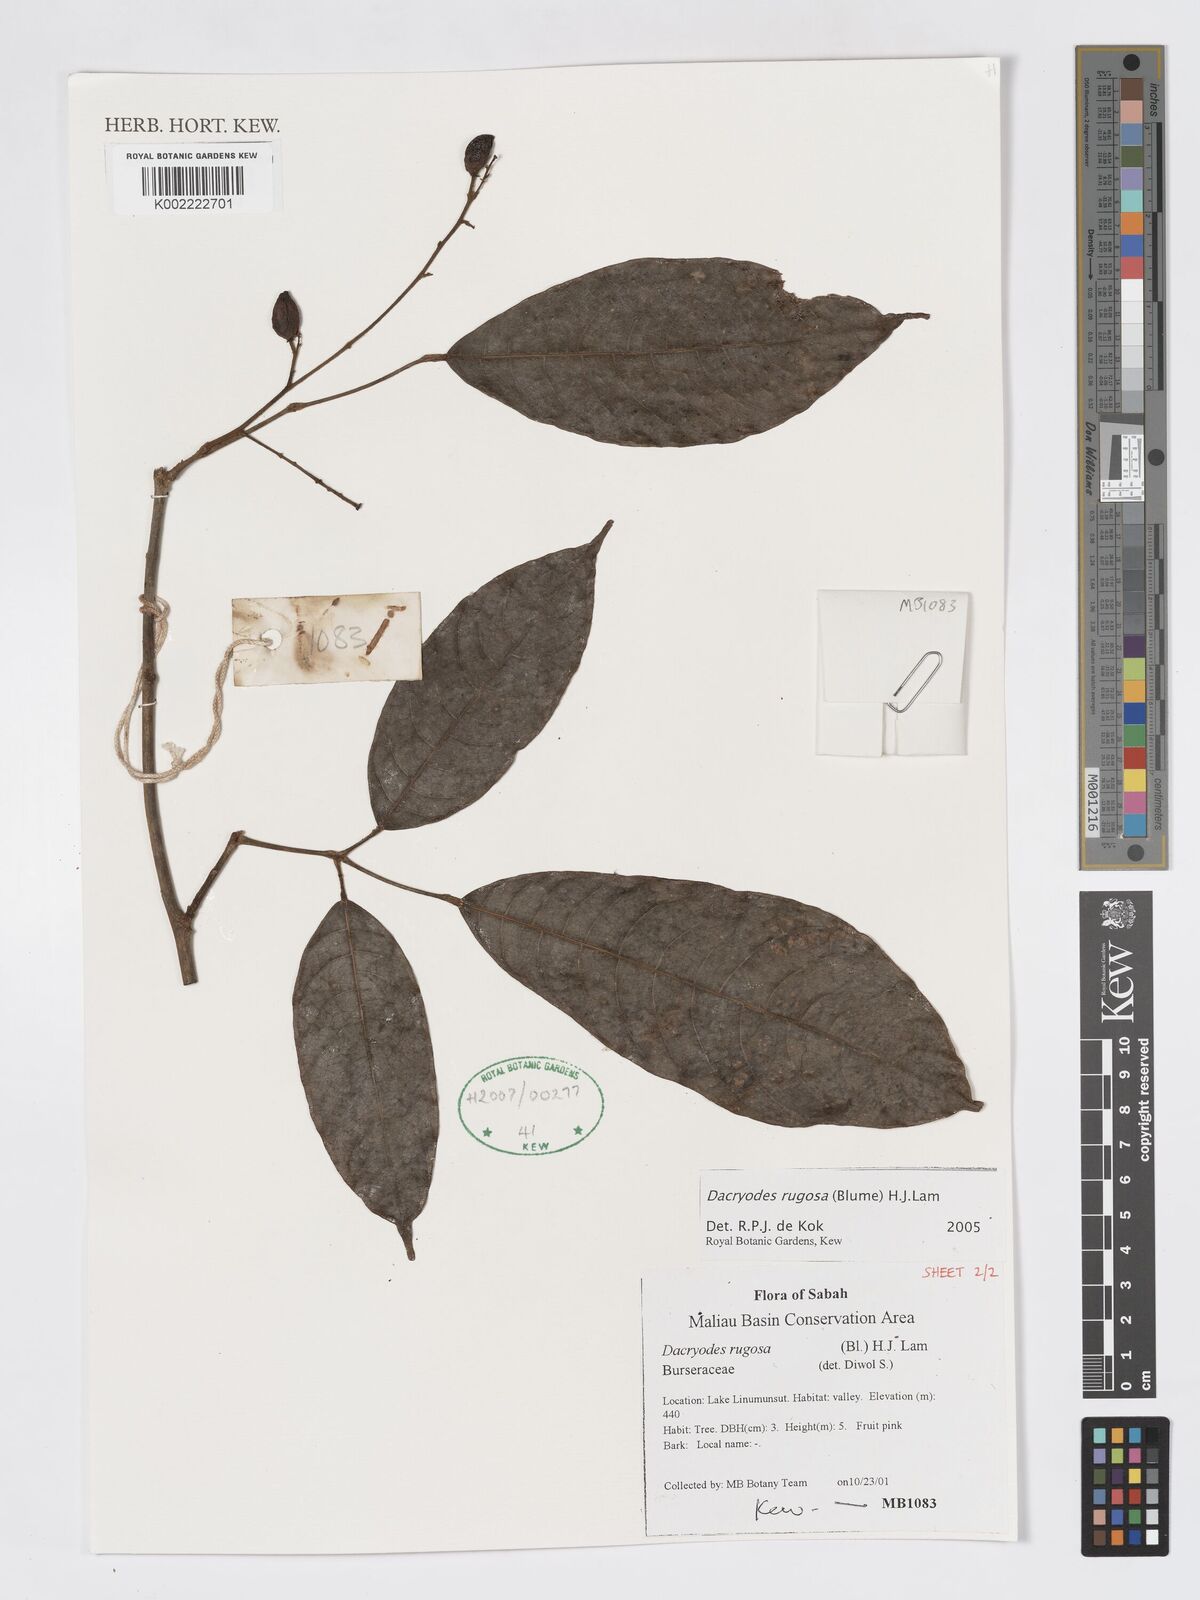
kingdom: Plantae
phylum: Tracheophyta
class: Magnoliopsida
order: Sapindales
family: Burseraceae
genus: Dacryodes
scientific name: Dacryodes rugosa
